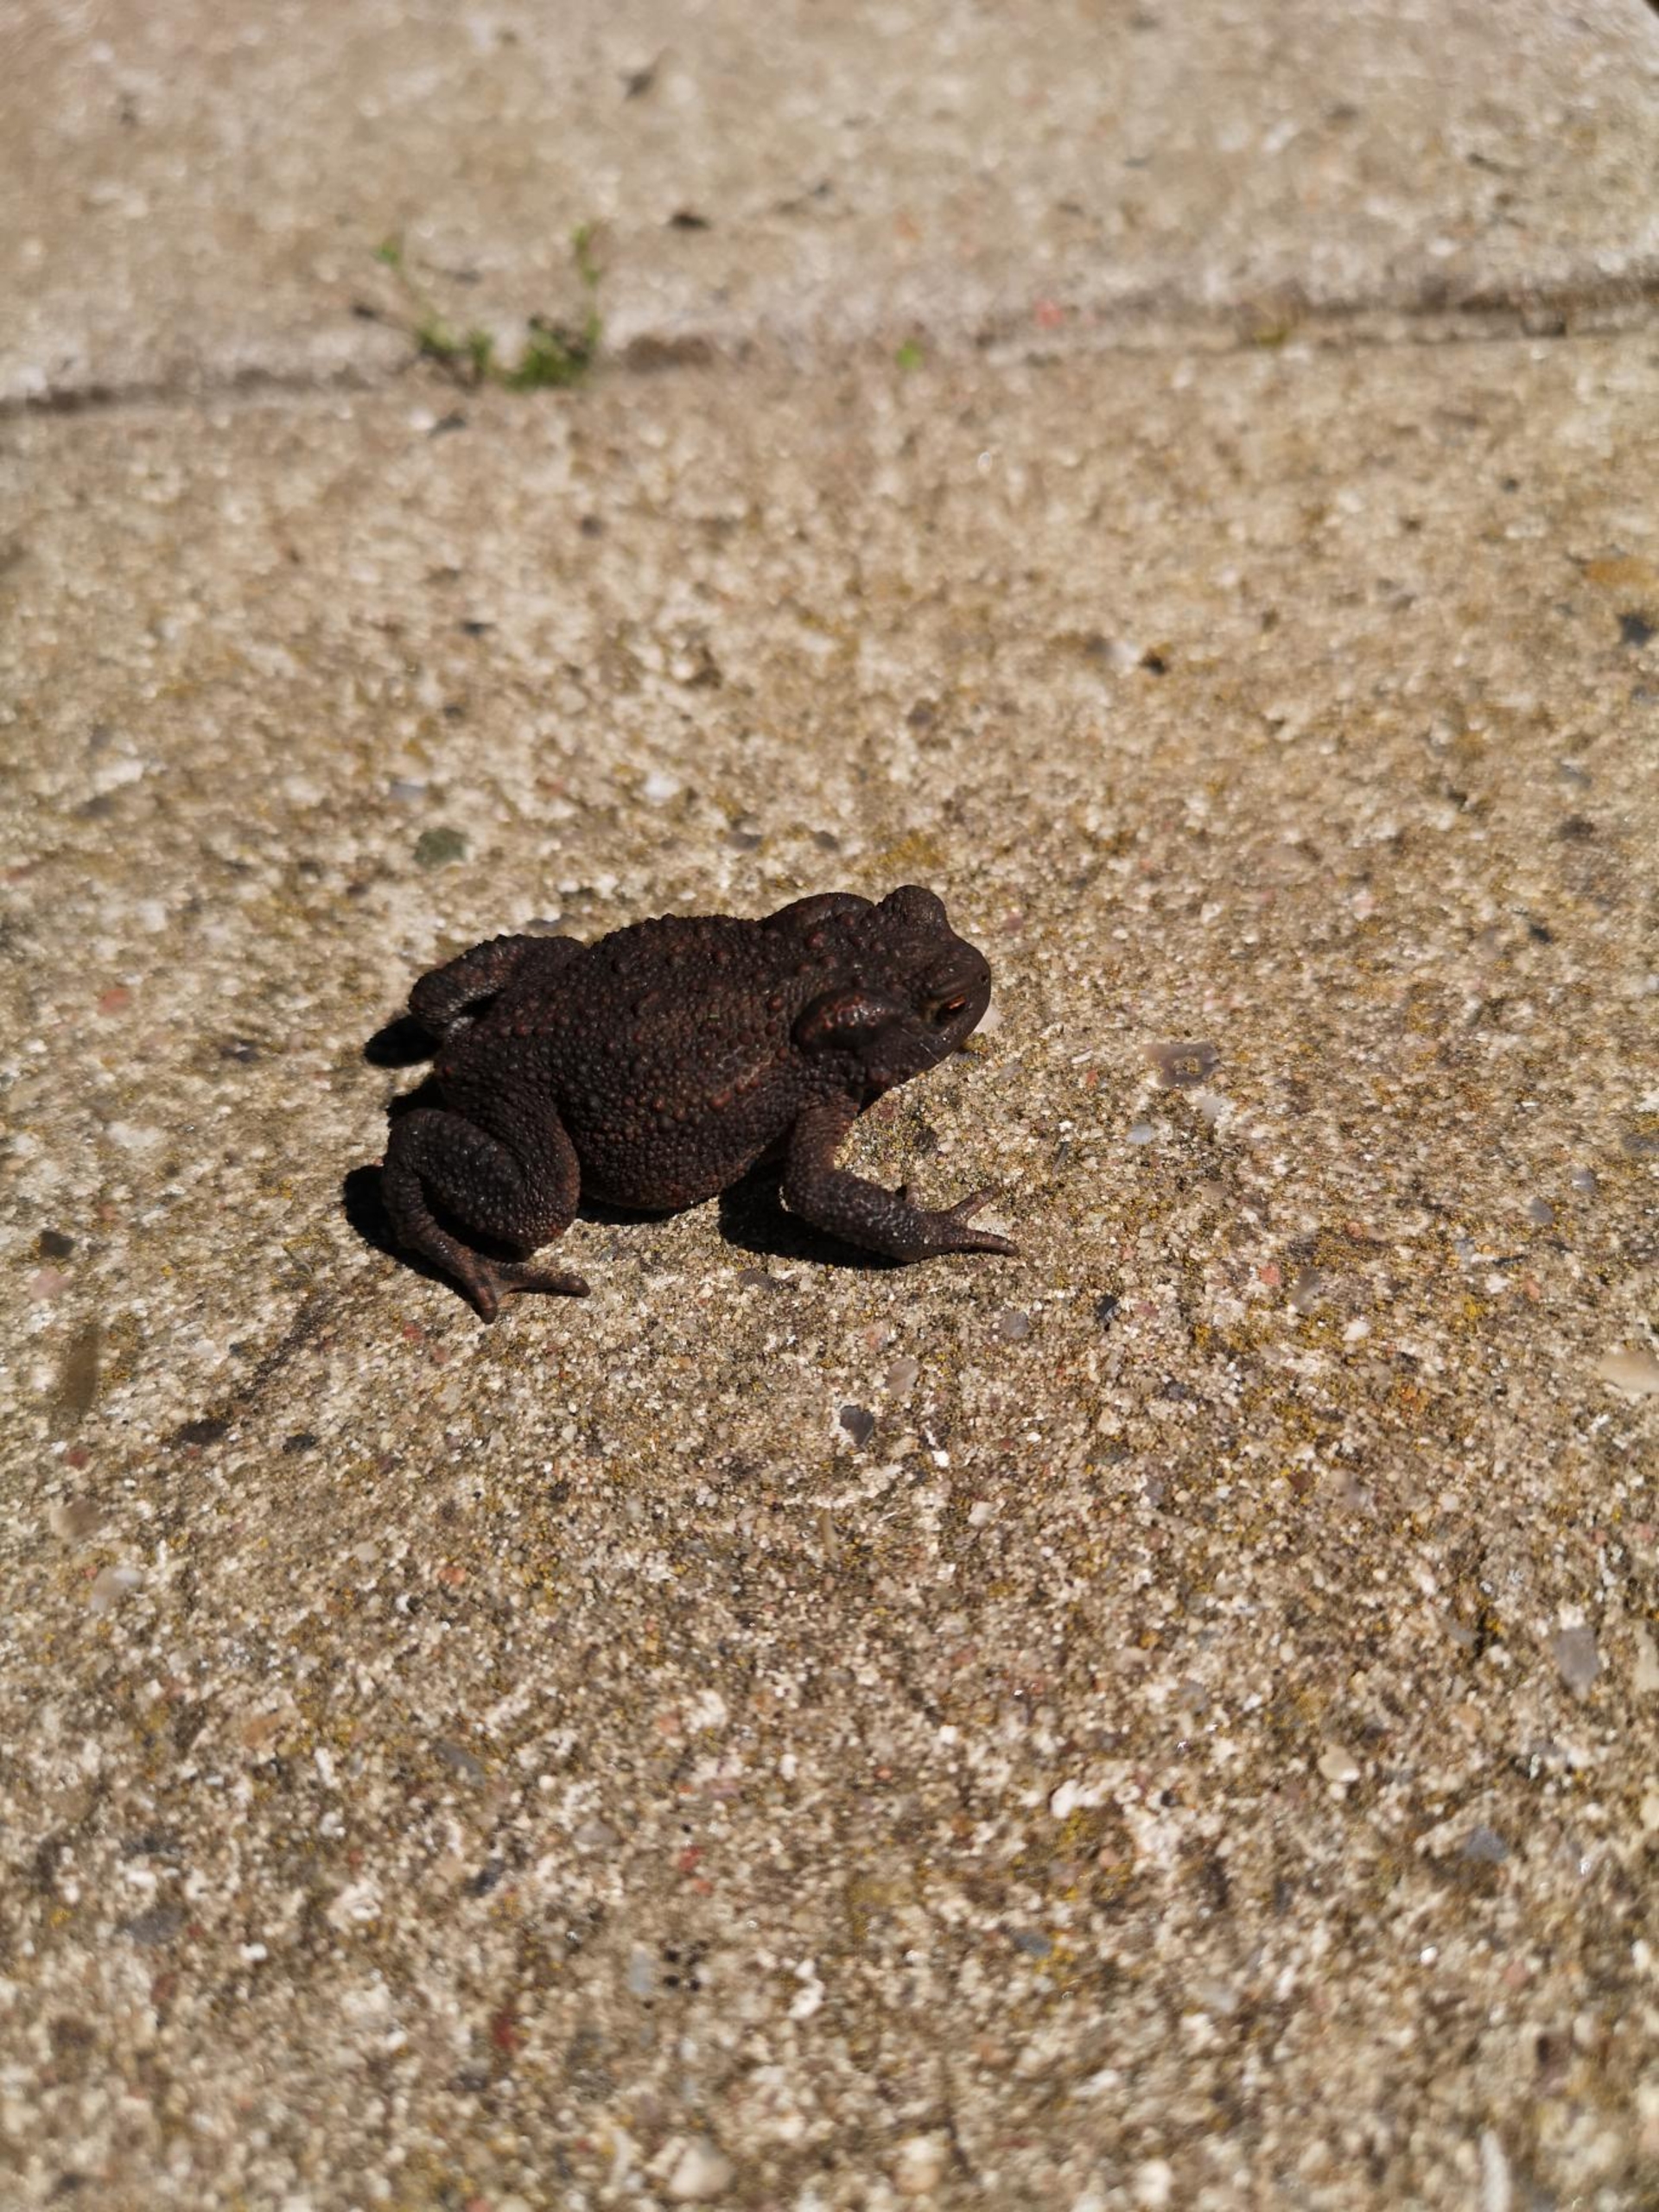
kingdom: Animalia
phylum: Chordata
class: Amphibia
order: Anura
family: Bufonidae
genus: Bufo
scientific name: Bufo bufo
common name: Skrubtudse
